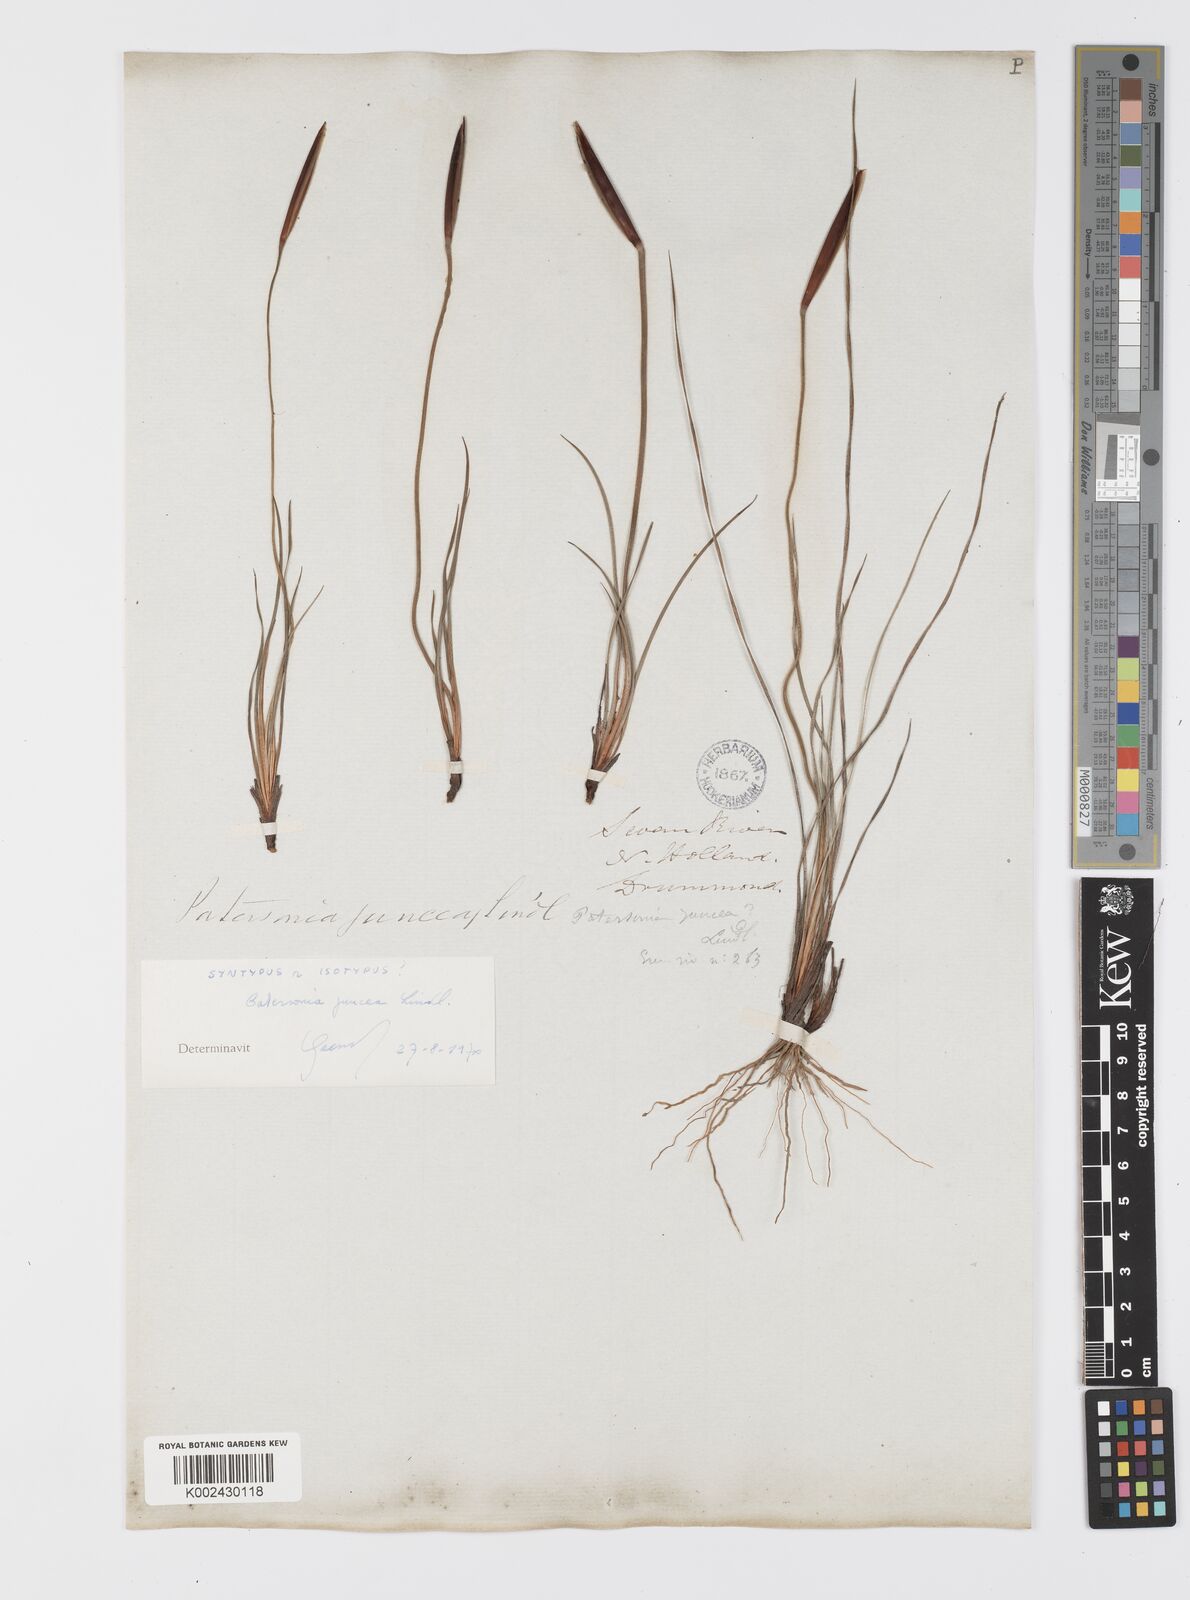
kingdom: Plantae
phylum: Tracheophyta
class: Liliopsida
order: Asparagales
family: Iridaceae
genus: Patersonia
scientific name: Patersonia juncea
